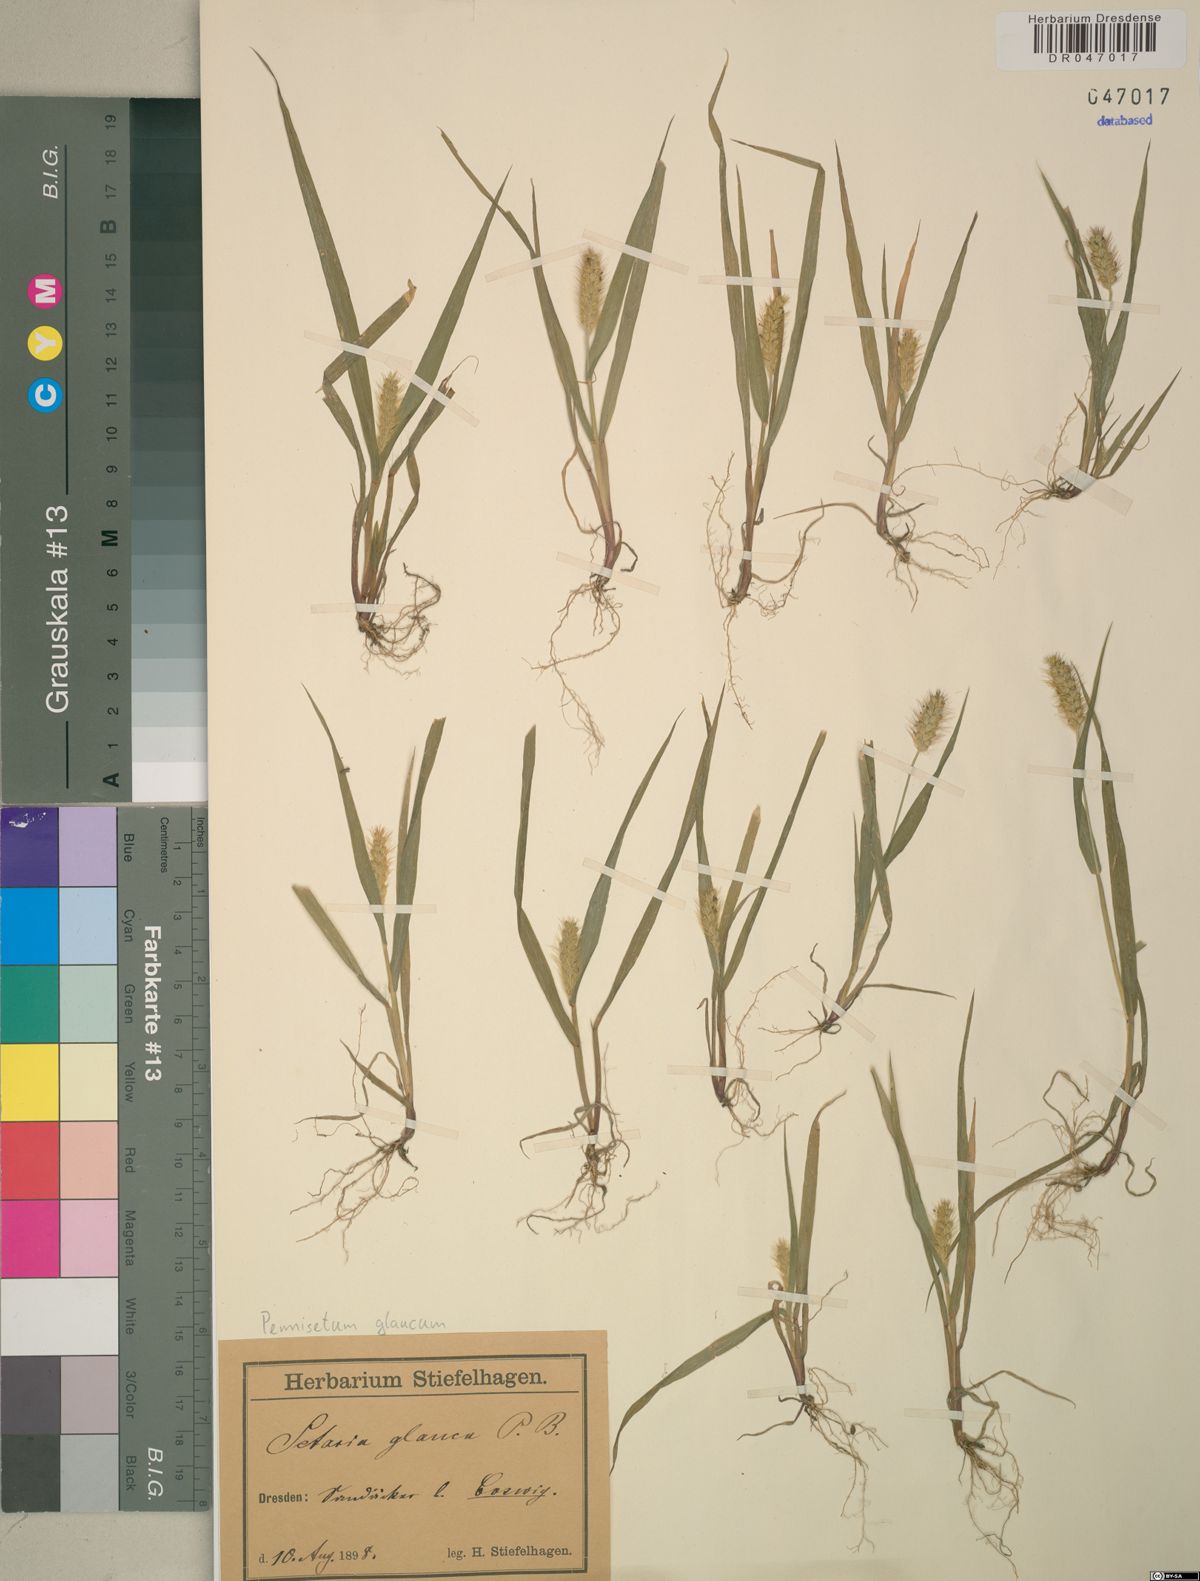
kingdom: Plantae
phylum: Tracheophyta
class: Liliopsida
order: Poales
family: Poaceae
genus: Cenchrus
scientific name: Cenchrus americanus
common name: Pearl millet
